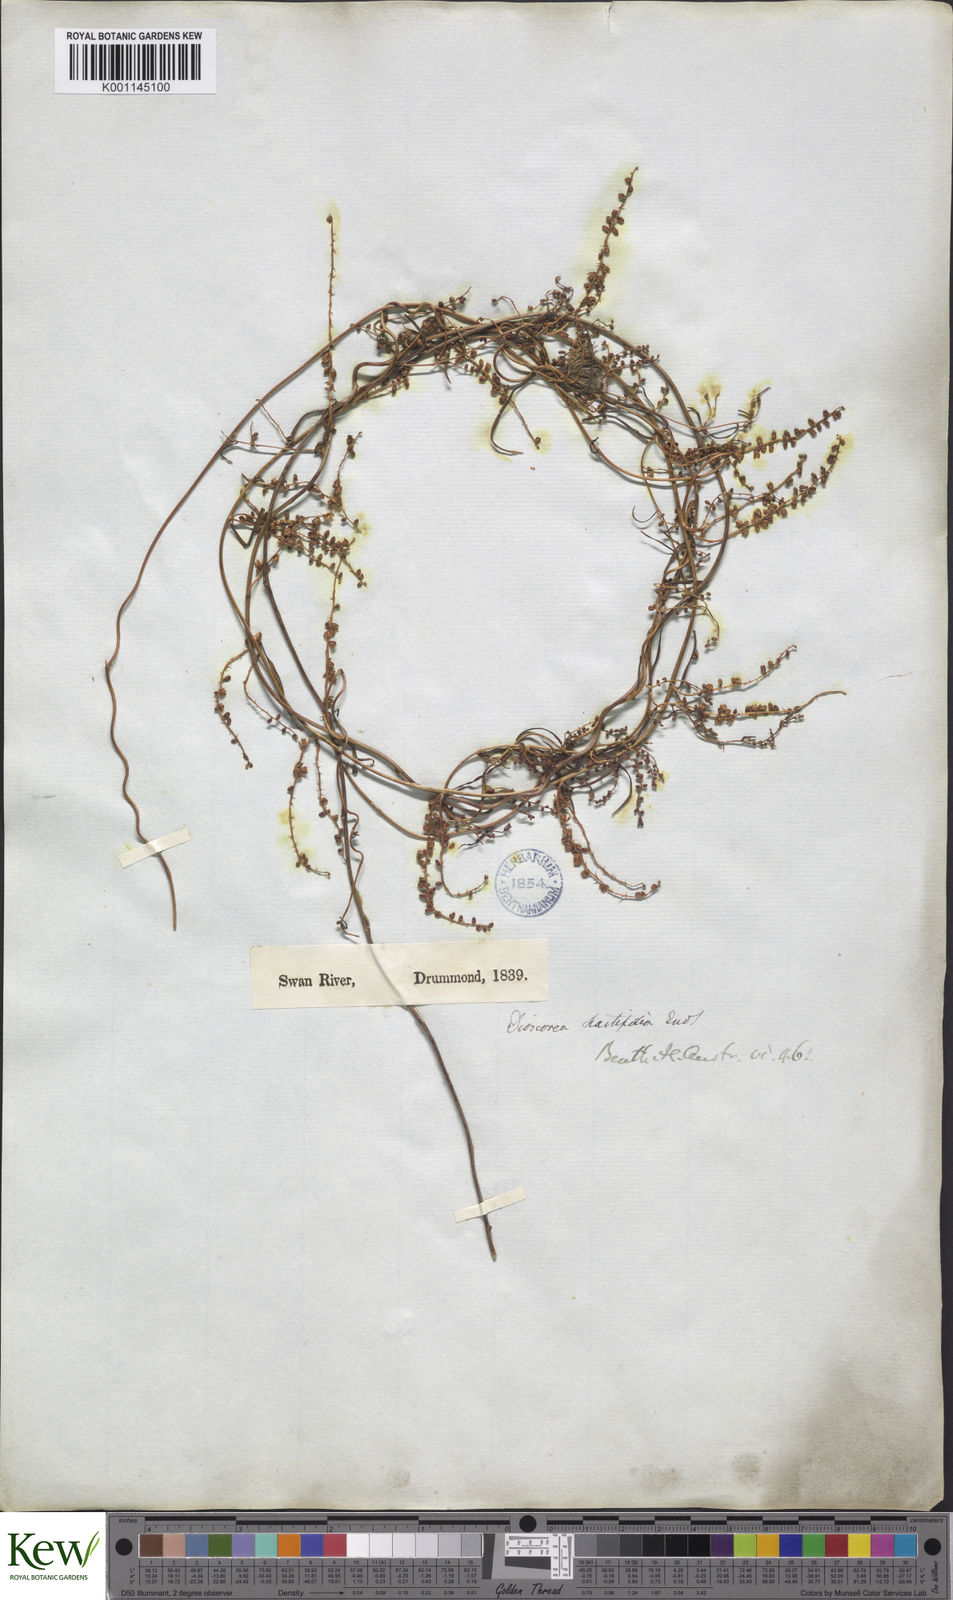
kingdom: Plantae
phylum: Tracheophyta
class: Liliopsida
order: Dioscoreales
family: Dioscoreaceae
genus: Dioscorea
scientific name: Dioscorea hastifolia
